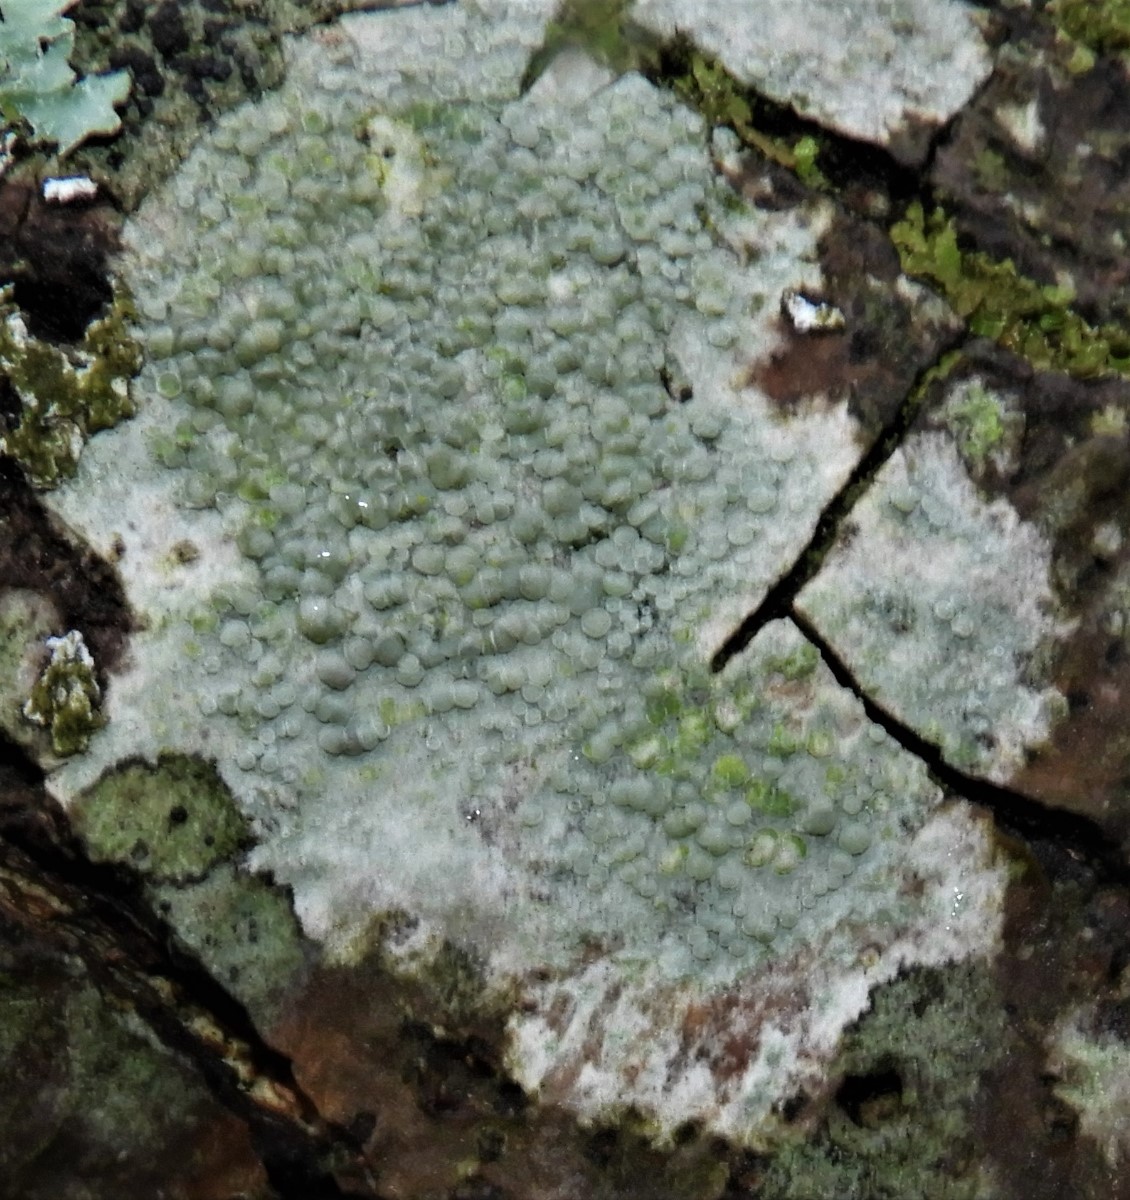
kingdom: Fungi
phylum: Ascomycota
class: Lecanoromycetes
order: Lecanorales
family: Lecanoraceae
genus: Glaucomaria
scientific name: Glaucomaria carpinea
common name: hviddugget kantskivelav
